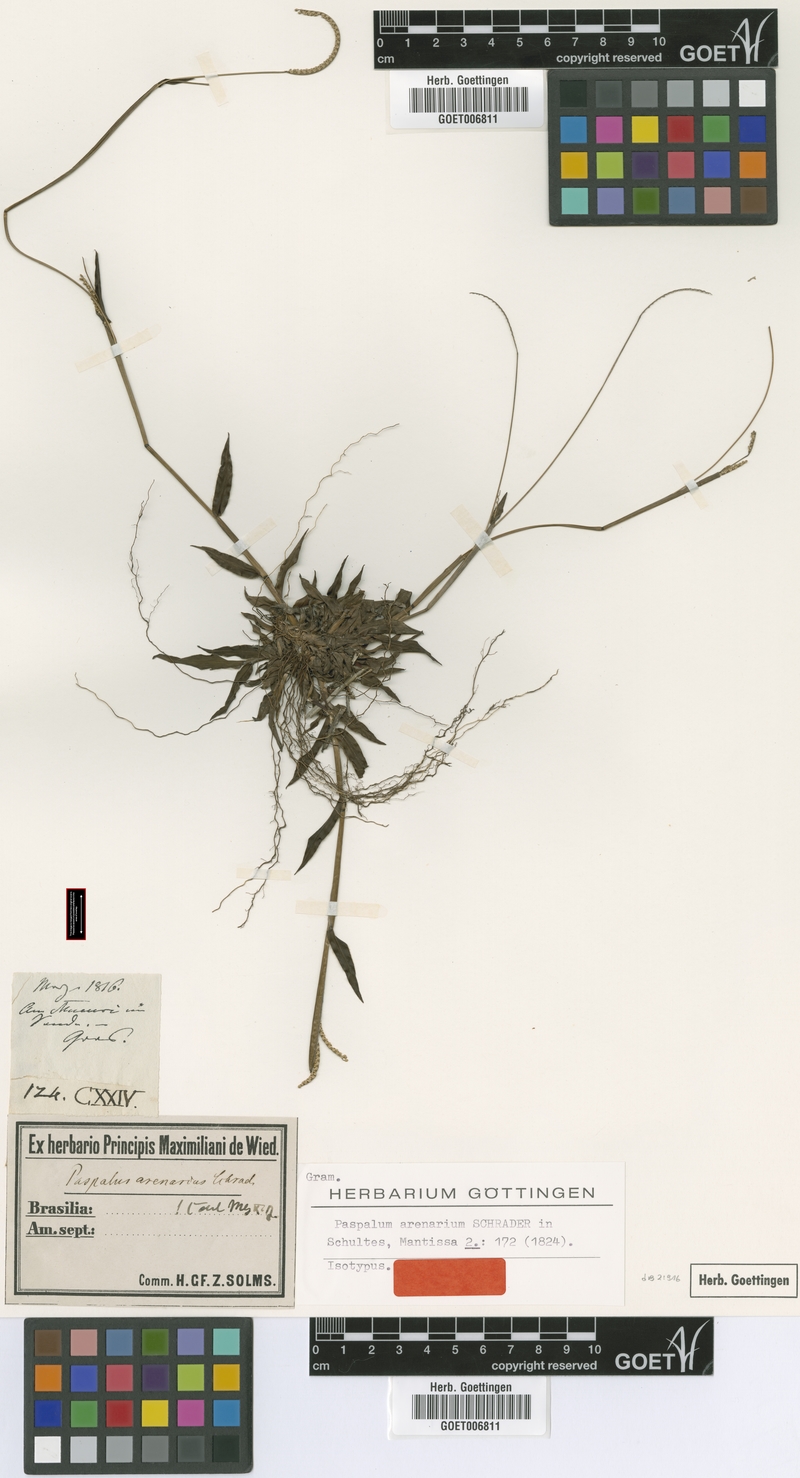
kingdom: Plantae
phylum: Tracheophyta
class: Liliopsida
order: Poales
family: Poaceae
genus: Paspalum
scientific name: Paspalum arenarium
